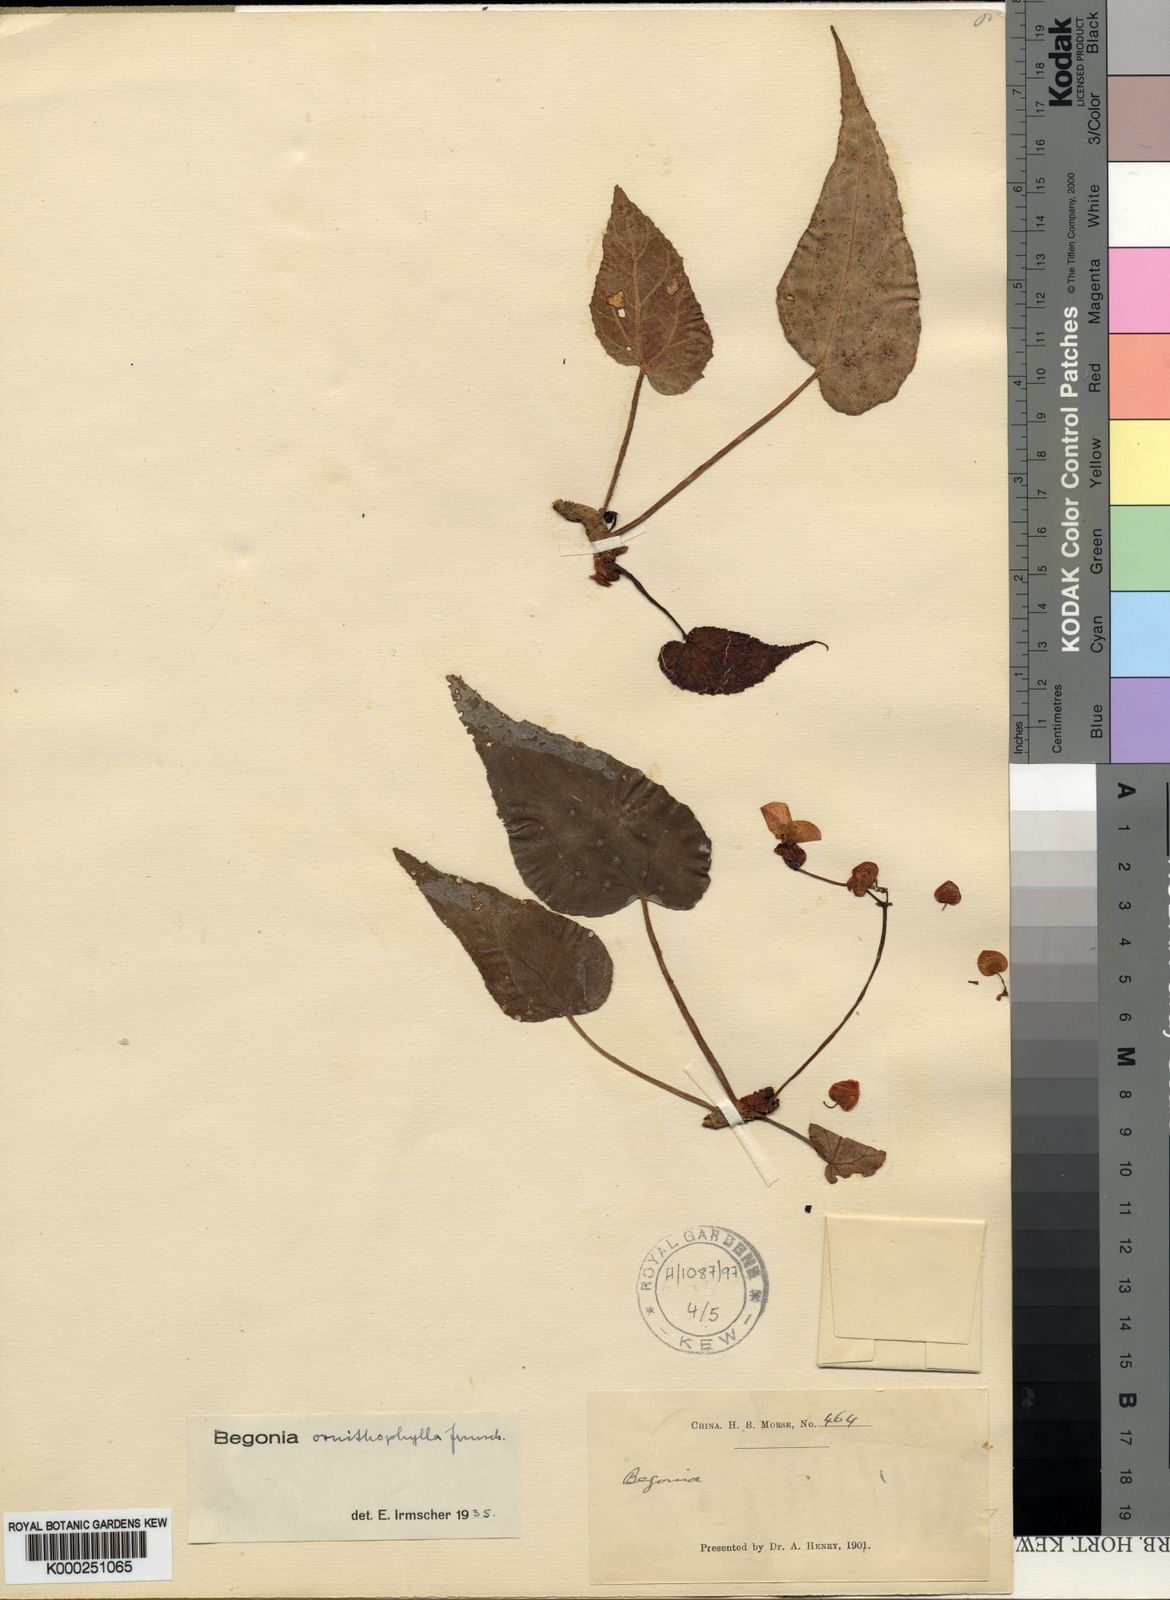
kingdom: Plantae
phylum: Tracheophyta
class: Magnoliopsida
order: Cucurbitales
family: Begoniaceae
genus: Begonia
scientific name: Begonia ornithophylla
